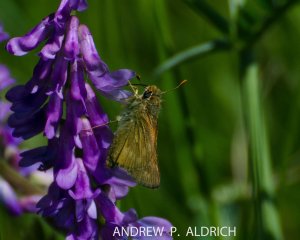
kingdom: Animalia
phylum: Arthropoda
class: Insecta
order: Lepidoptera
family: Hesperiidae
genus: Polites
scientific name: Polites
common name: Long Dash Skipper
